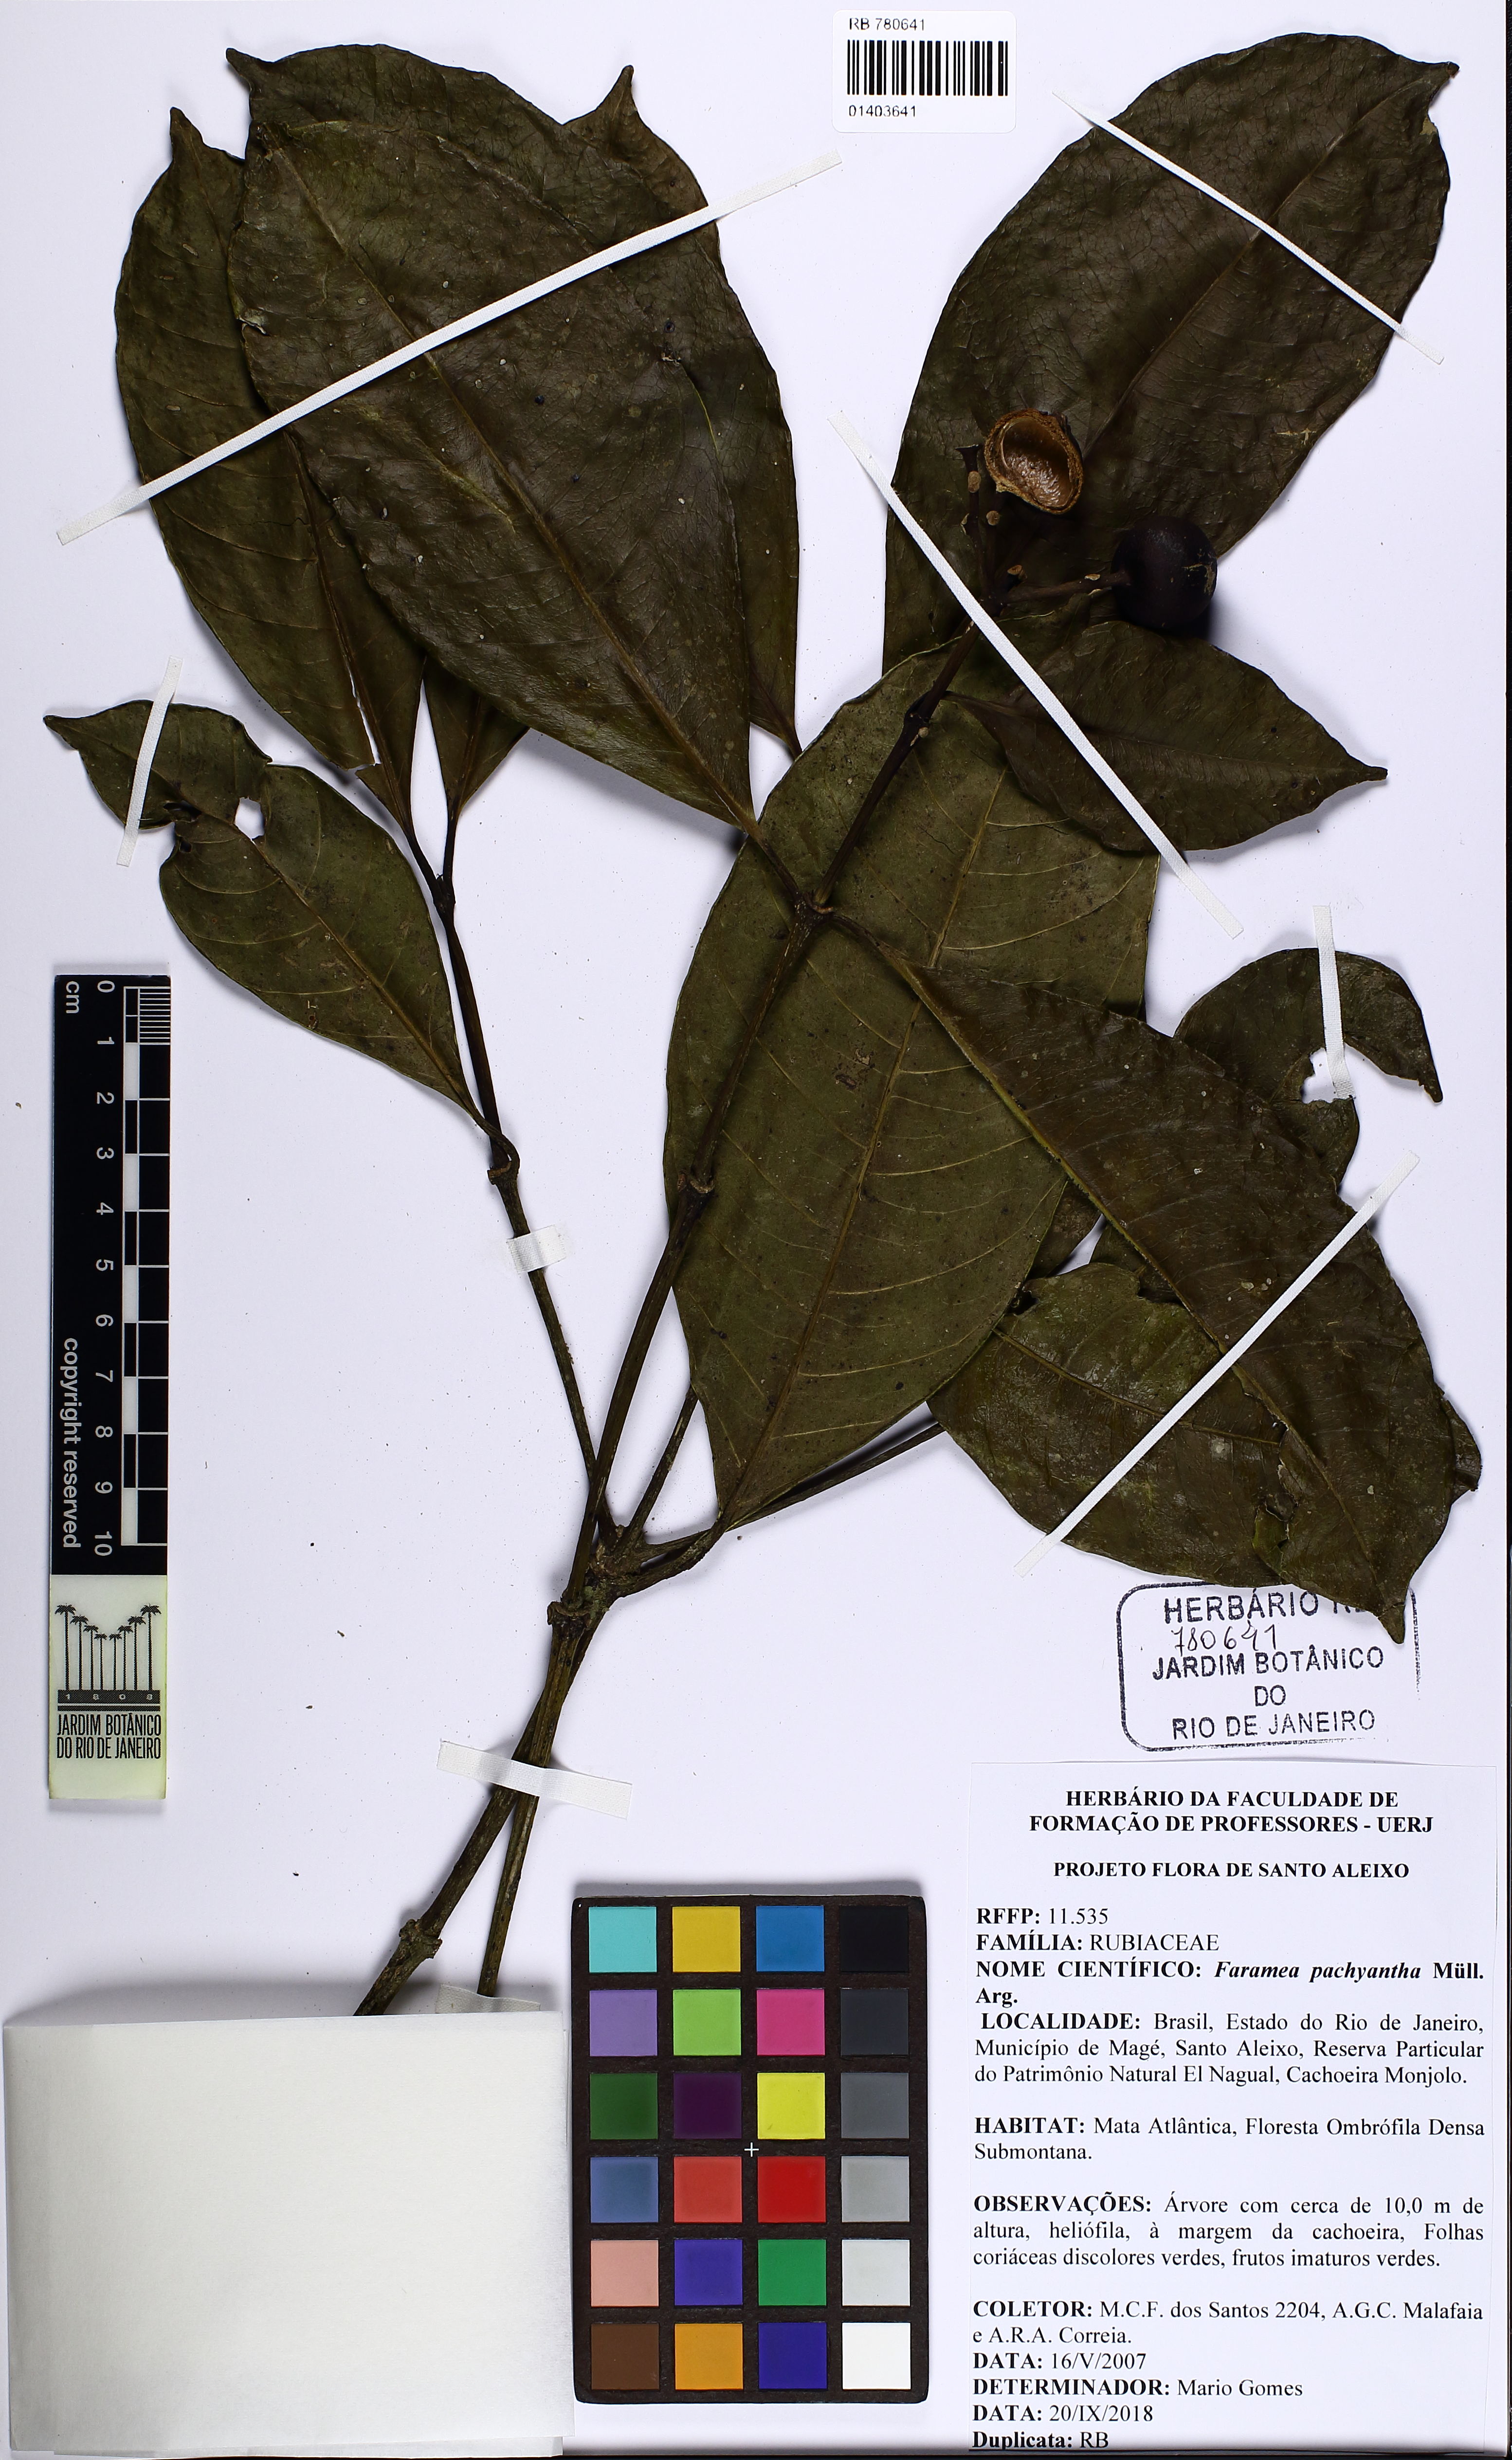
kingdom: Plantae
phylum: Tracheophyta
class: Magnoliopsida
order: Gentianales
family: Rubiaceae
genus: Faramea
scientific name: Faramea pachyantha
